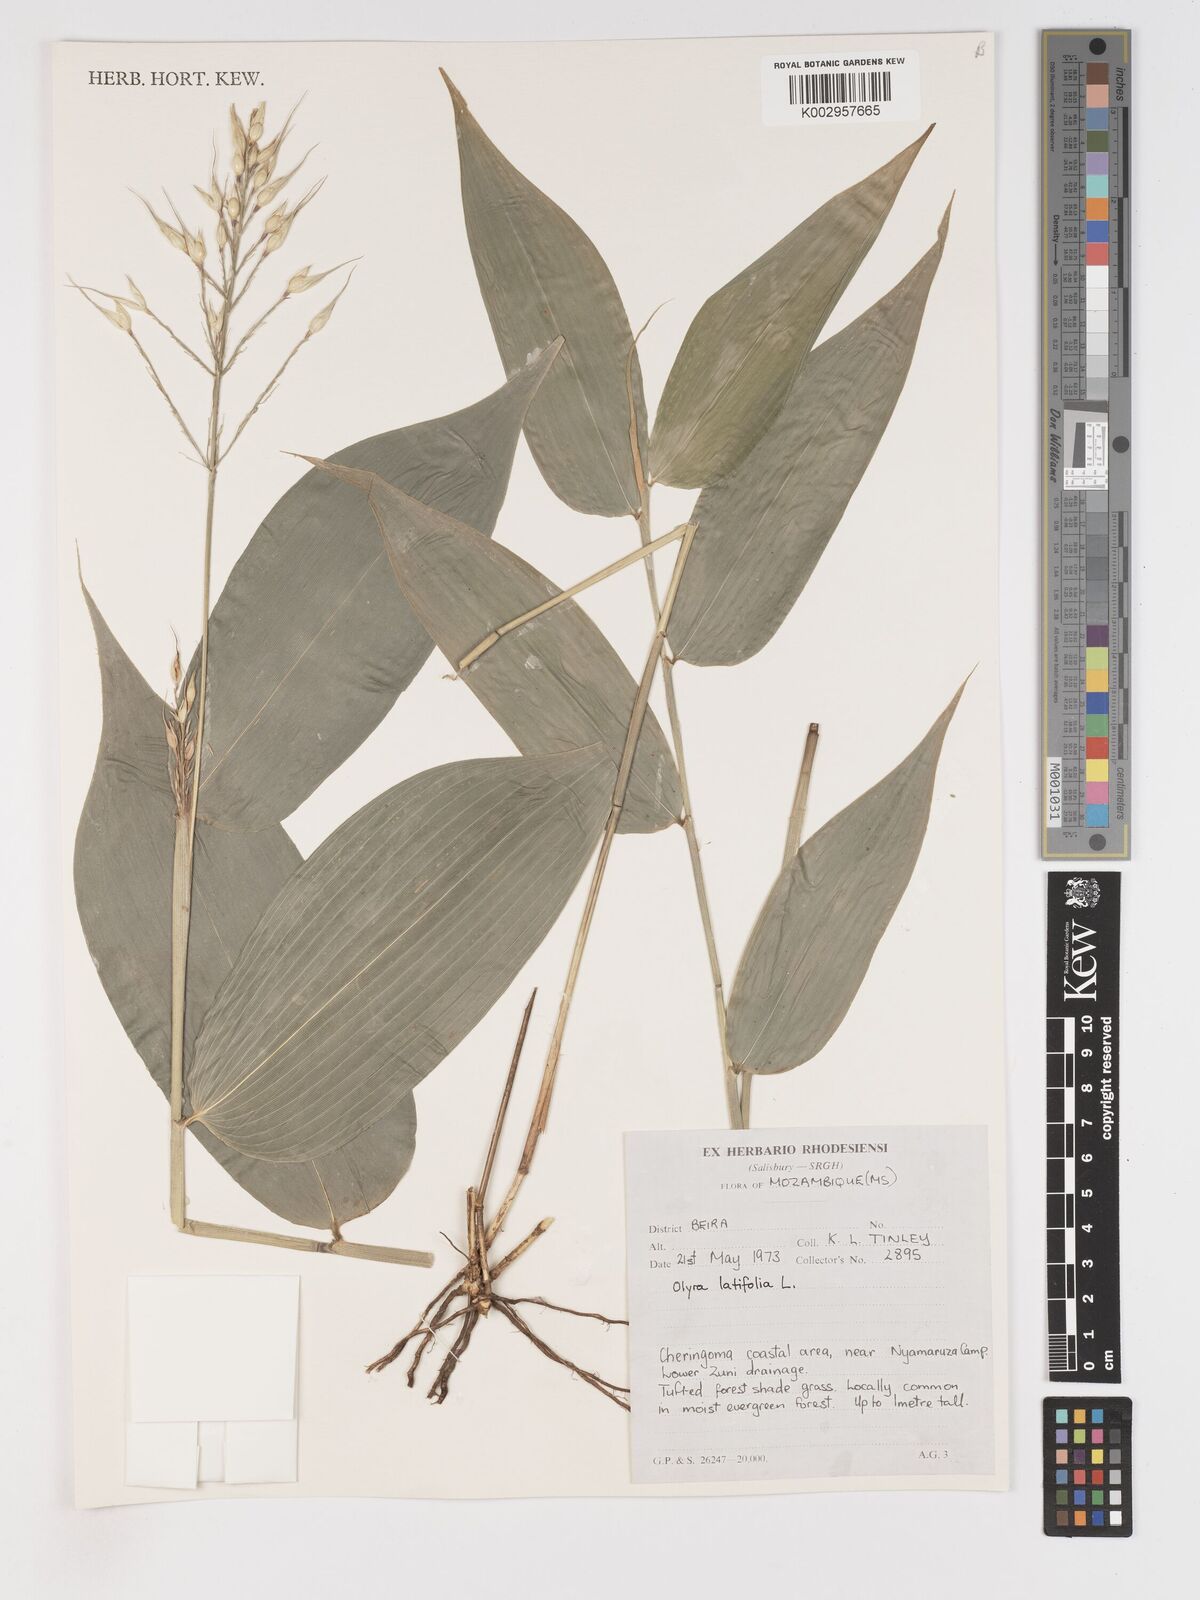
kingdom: Plantae
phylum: Tracheophyta
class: Liliopsida
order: Poales
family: Poaceae
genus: Olyra
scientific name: Olyra latifolia
